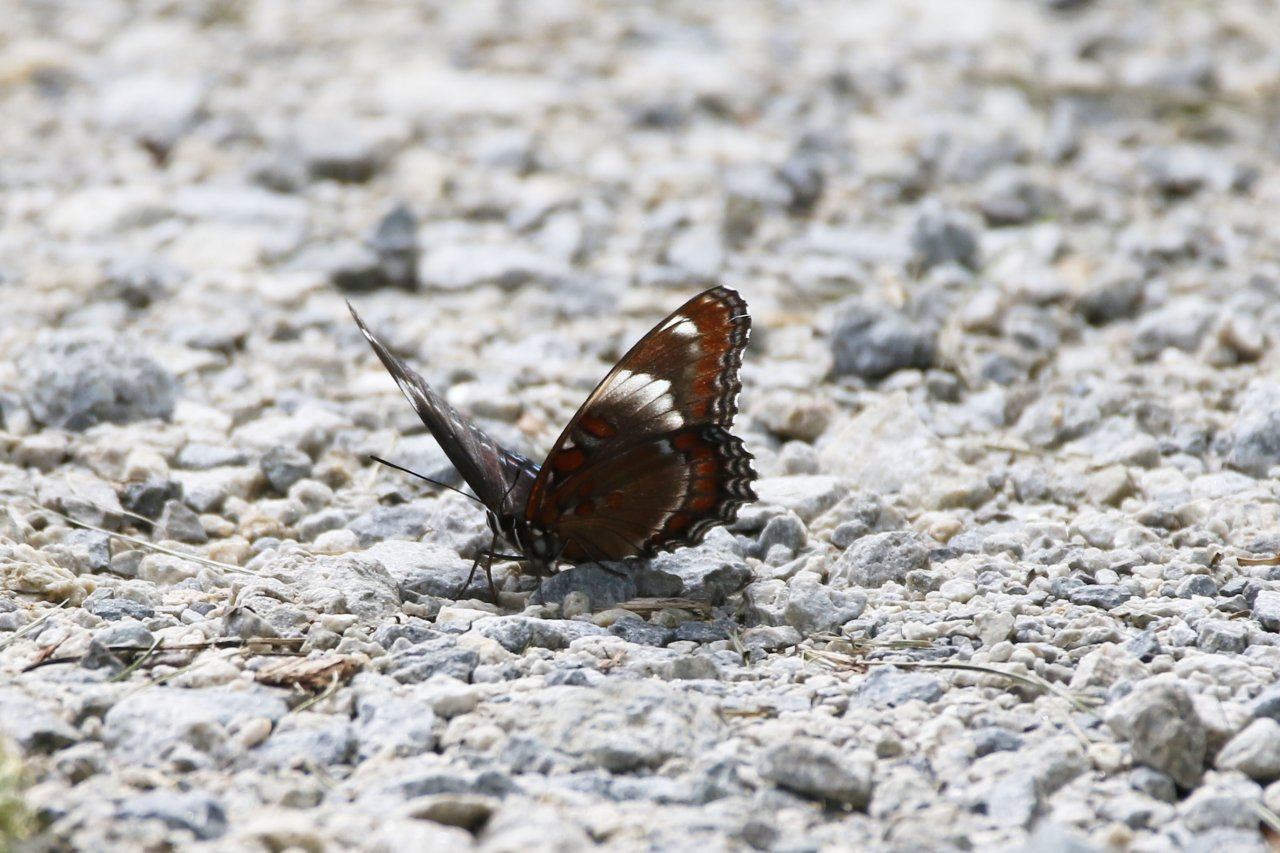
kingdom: Animalia
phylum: Arthropoda
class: Insecta
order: Lepidoptera
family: Nymphalidae
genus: Limenitis
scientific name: Limenitis arthemis
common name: Red-spotted Admiral
